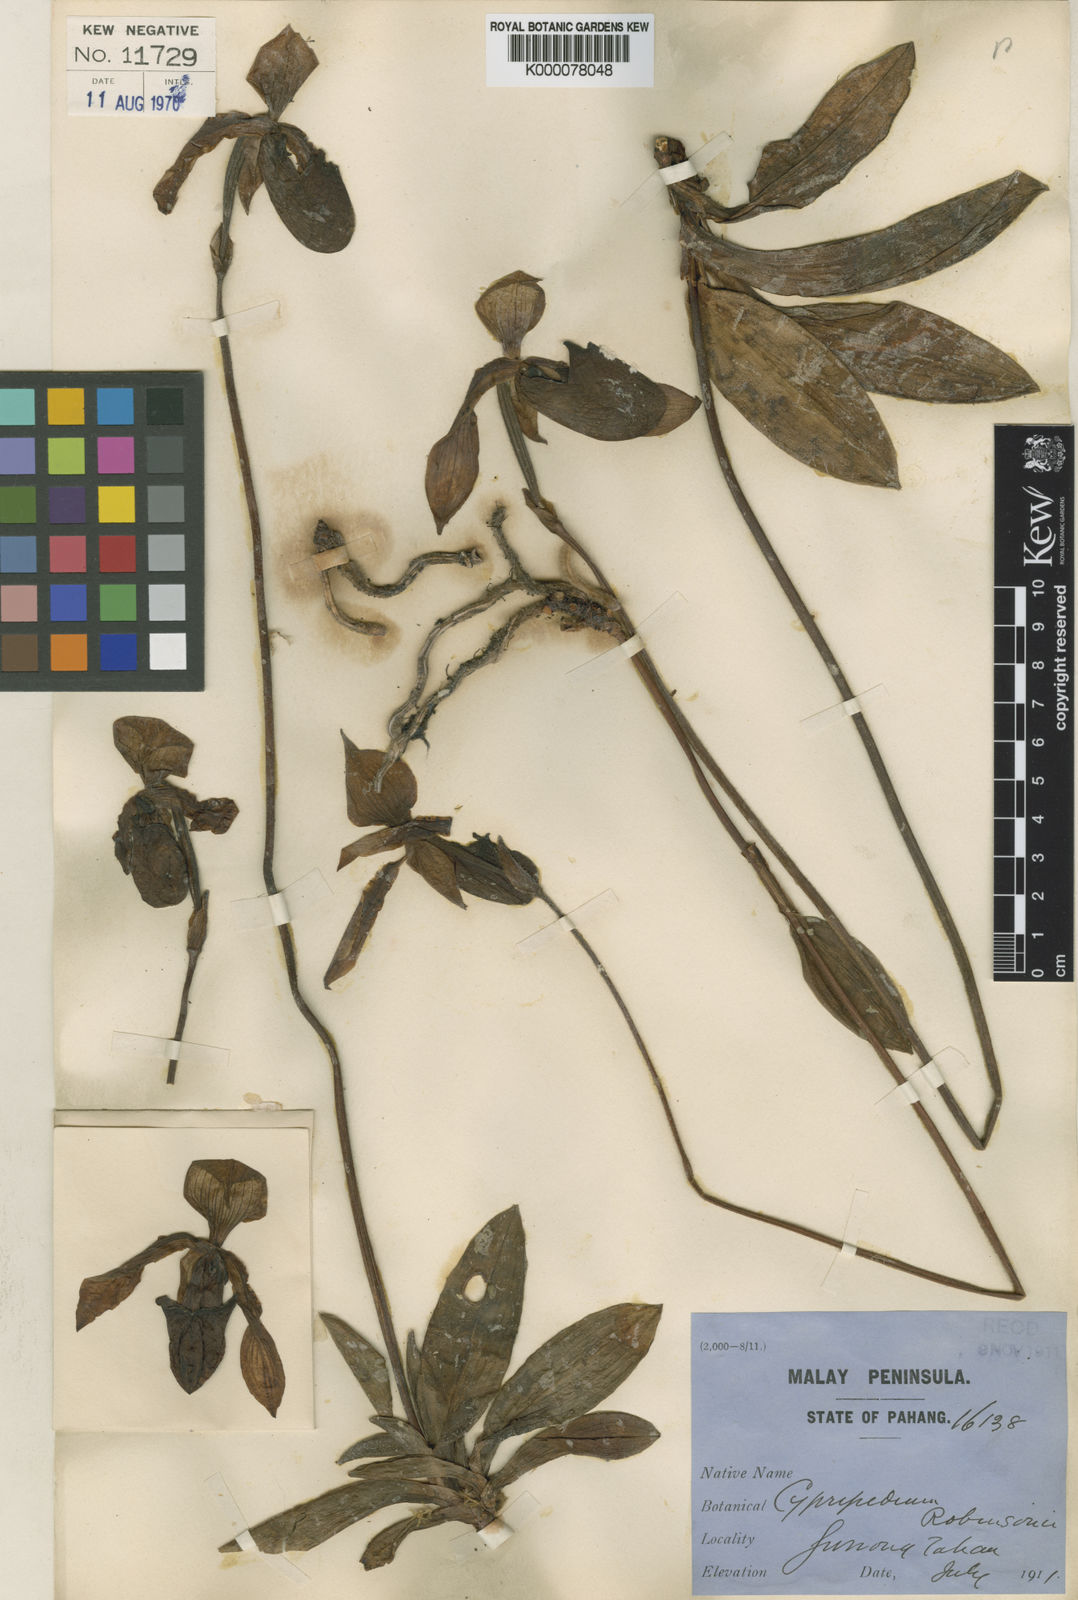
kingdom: Plantae
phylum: Tracheophyta
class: Liliopsida
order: Asparagales
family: Orchidaceae
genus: Paphiopedilum
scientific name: Paphiopedilum bullenianum
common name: Bullen's paphiopedilum
